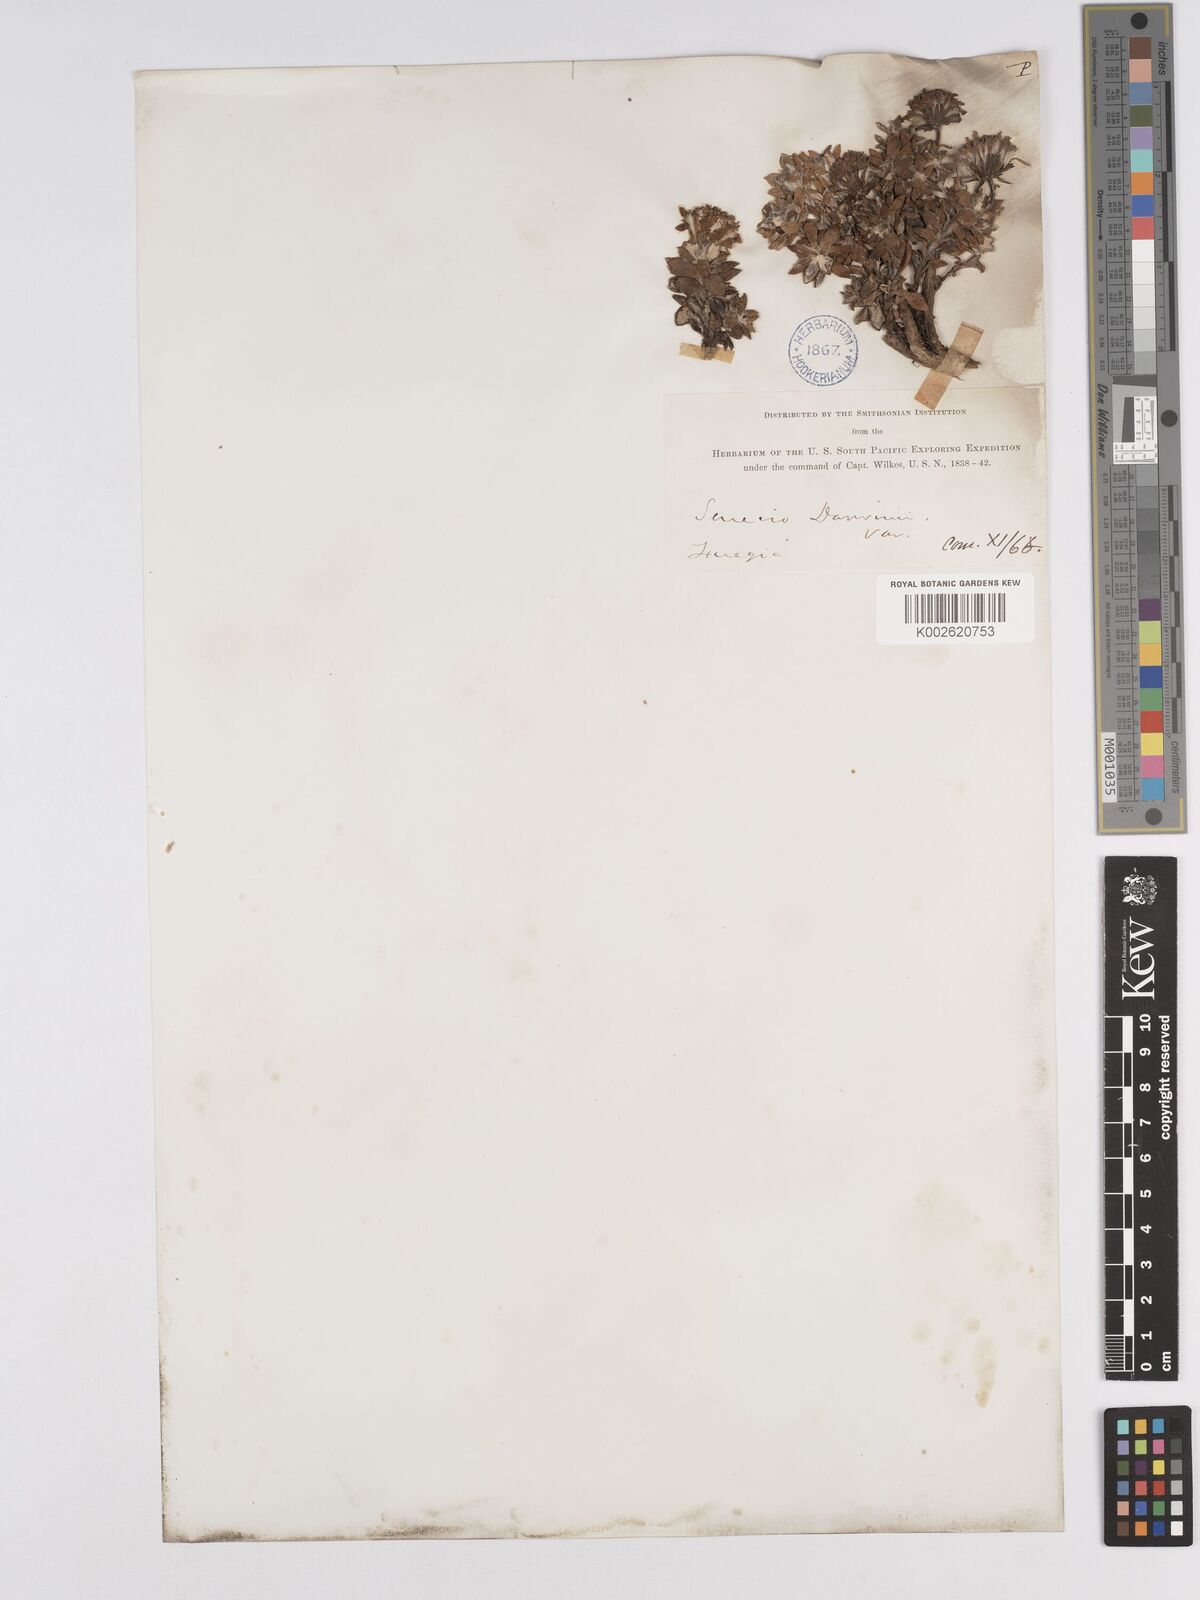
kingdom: Plantae
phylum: Tracheophyta
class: Magnoliopsida
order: Asterales
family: Asteraceae
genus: Senecio
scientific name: Senecio darwinii
